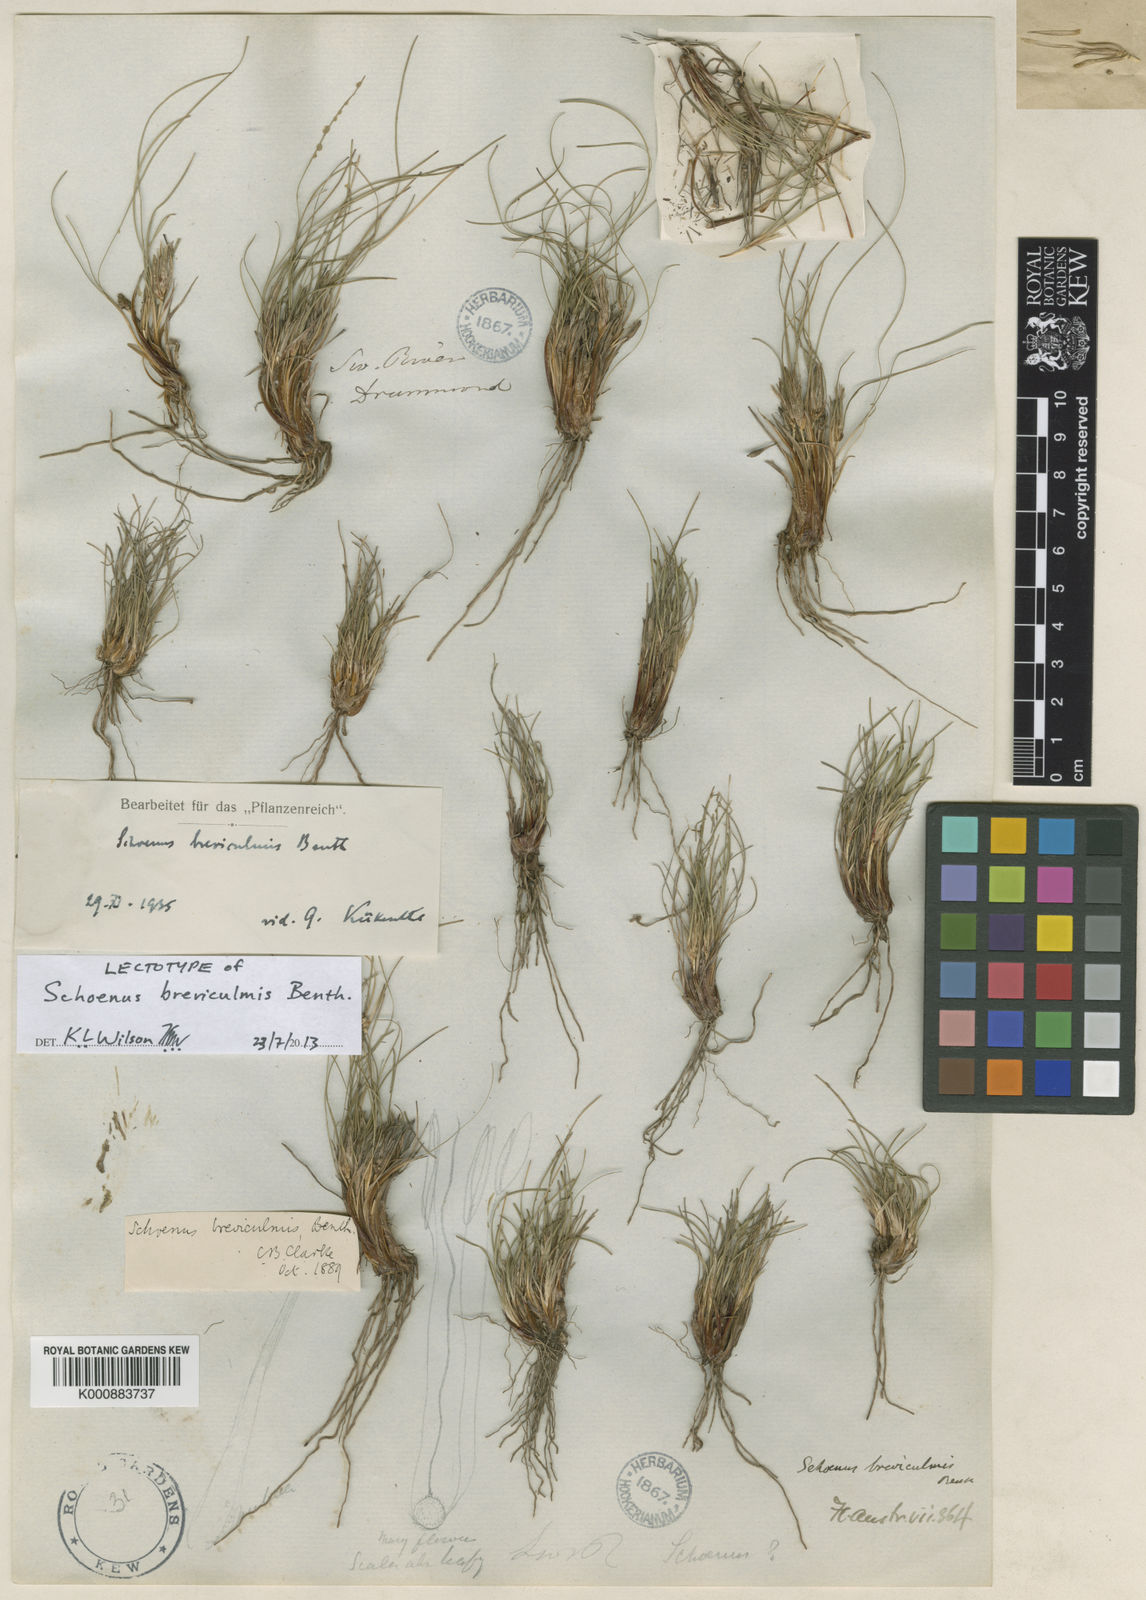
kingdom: Plantae
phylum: Tracheophyta
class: Liliopsida
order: Poales
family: Cyperaceae
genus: Schoenus
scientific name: Schoenus breviculmis
